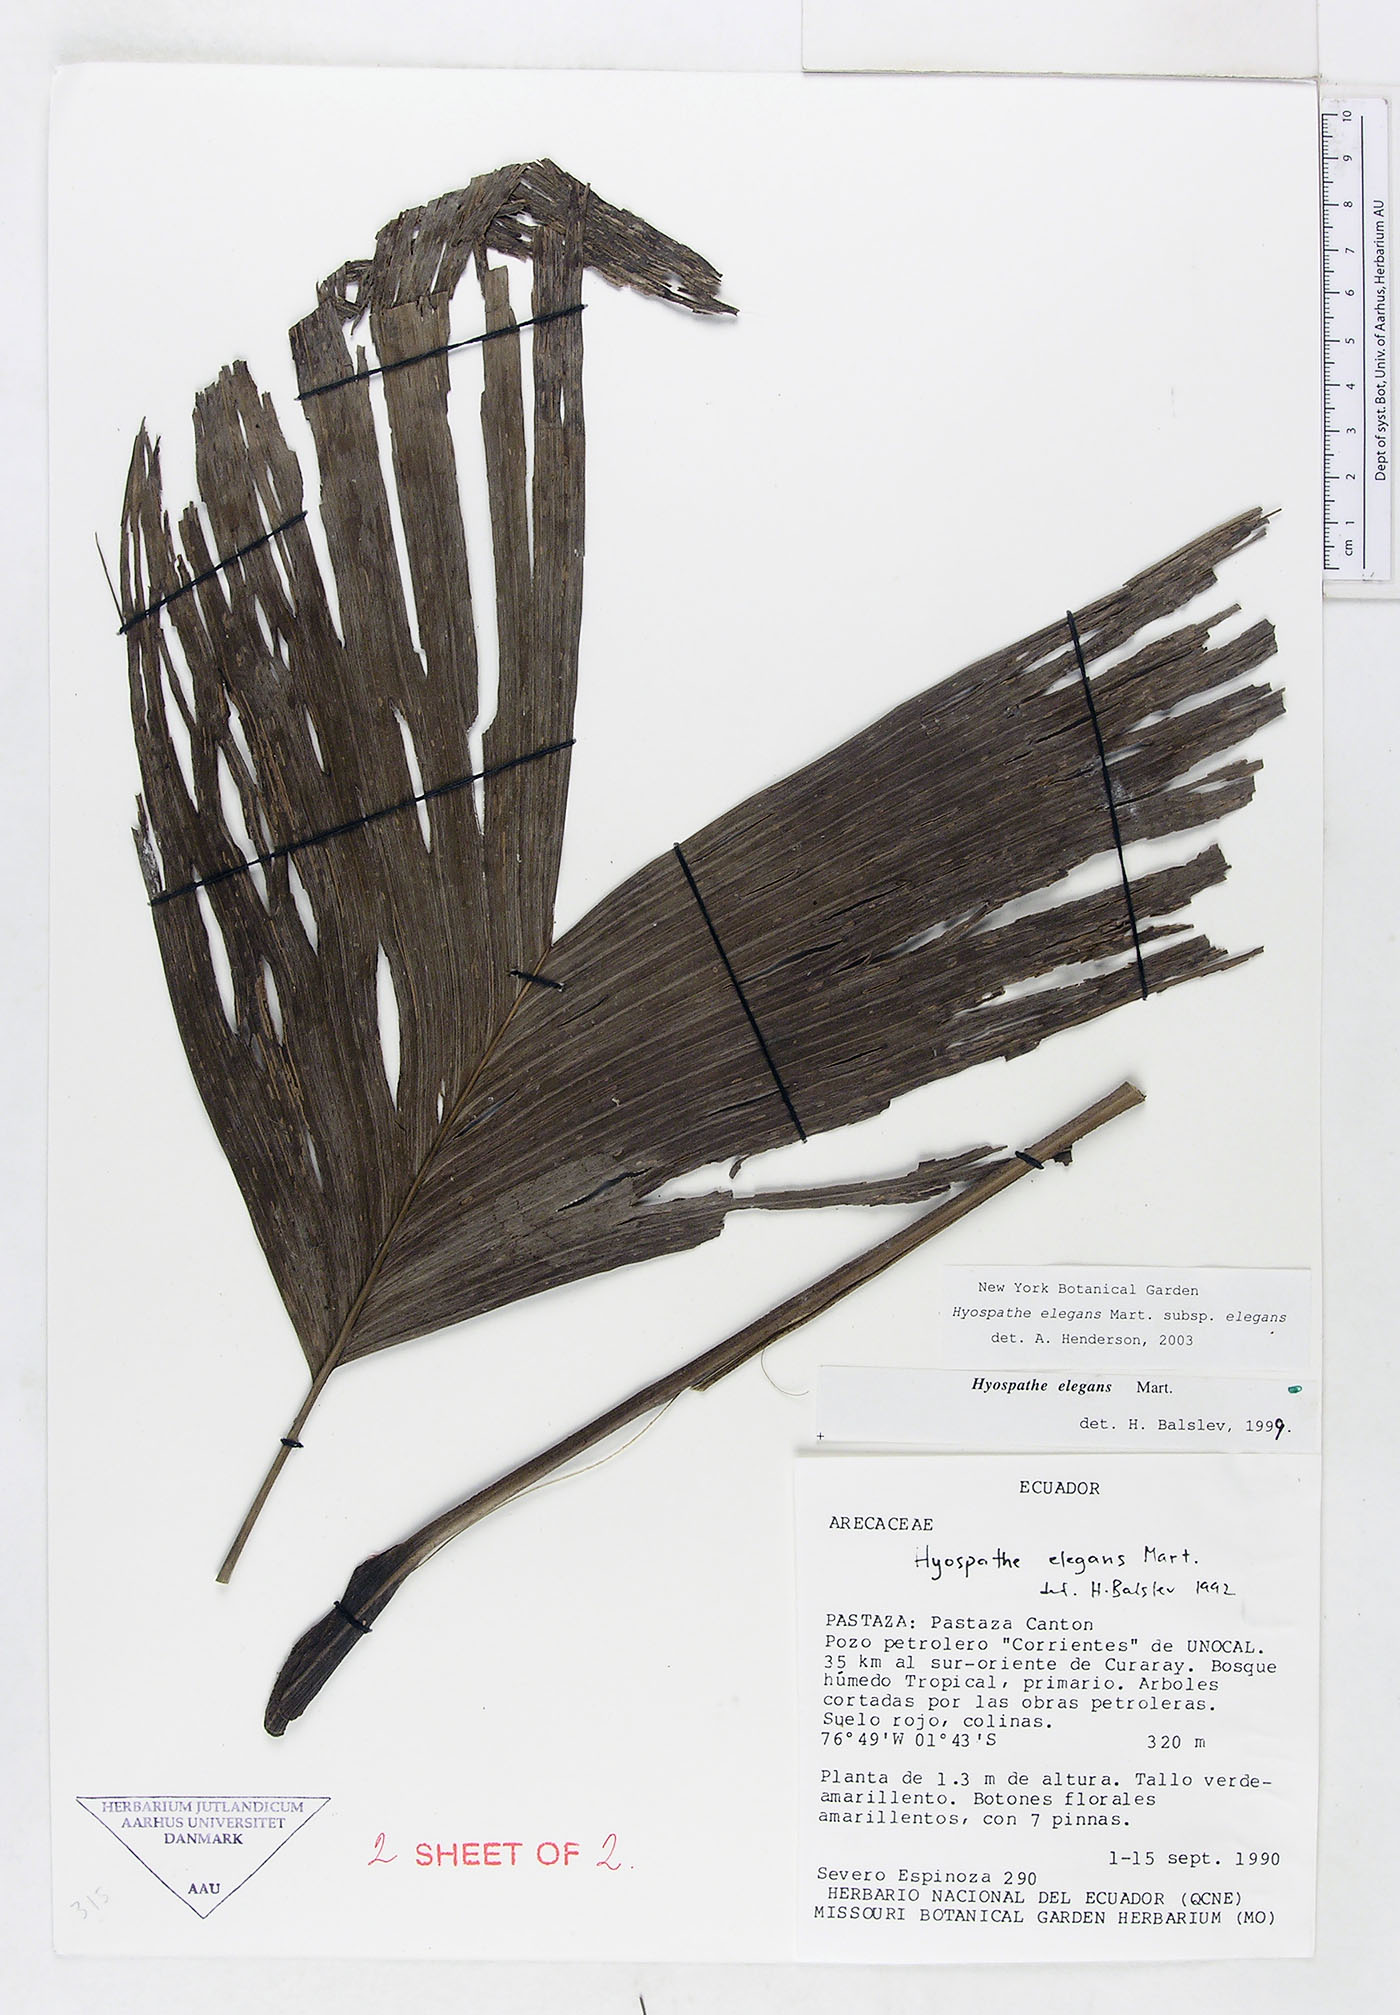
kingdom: Plantae
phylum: Tracheophyta
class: Liliopsida
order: Arecales
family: Arecaceae
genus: Hyospathe
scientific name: Hyospathe elegans
